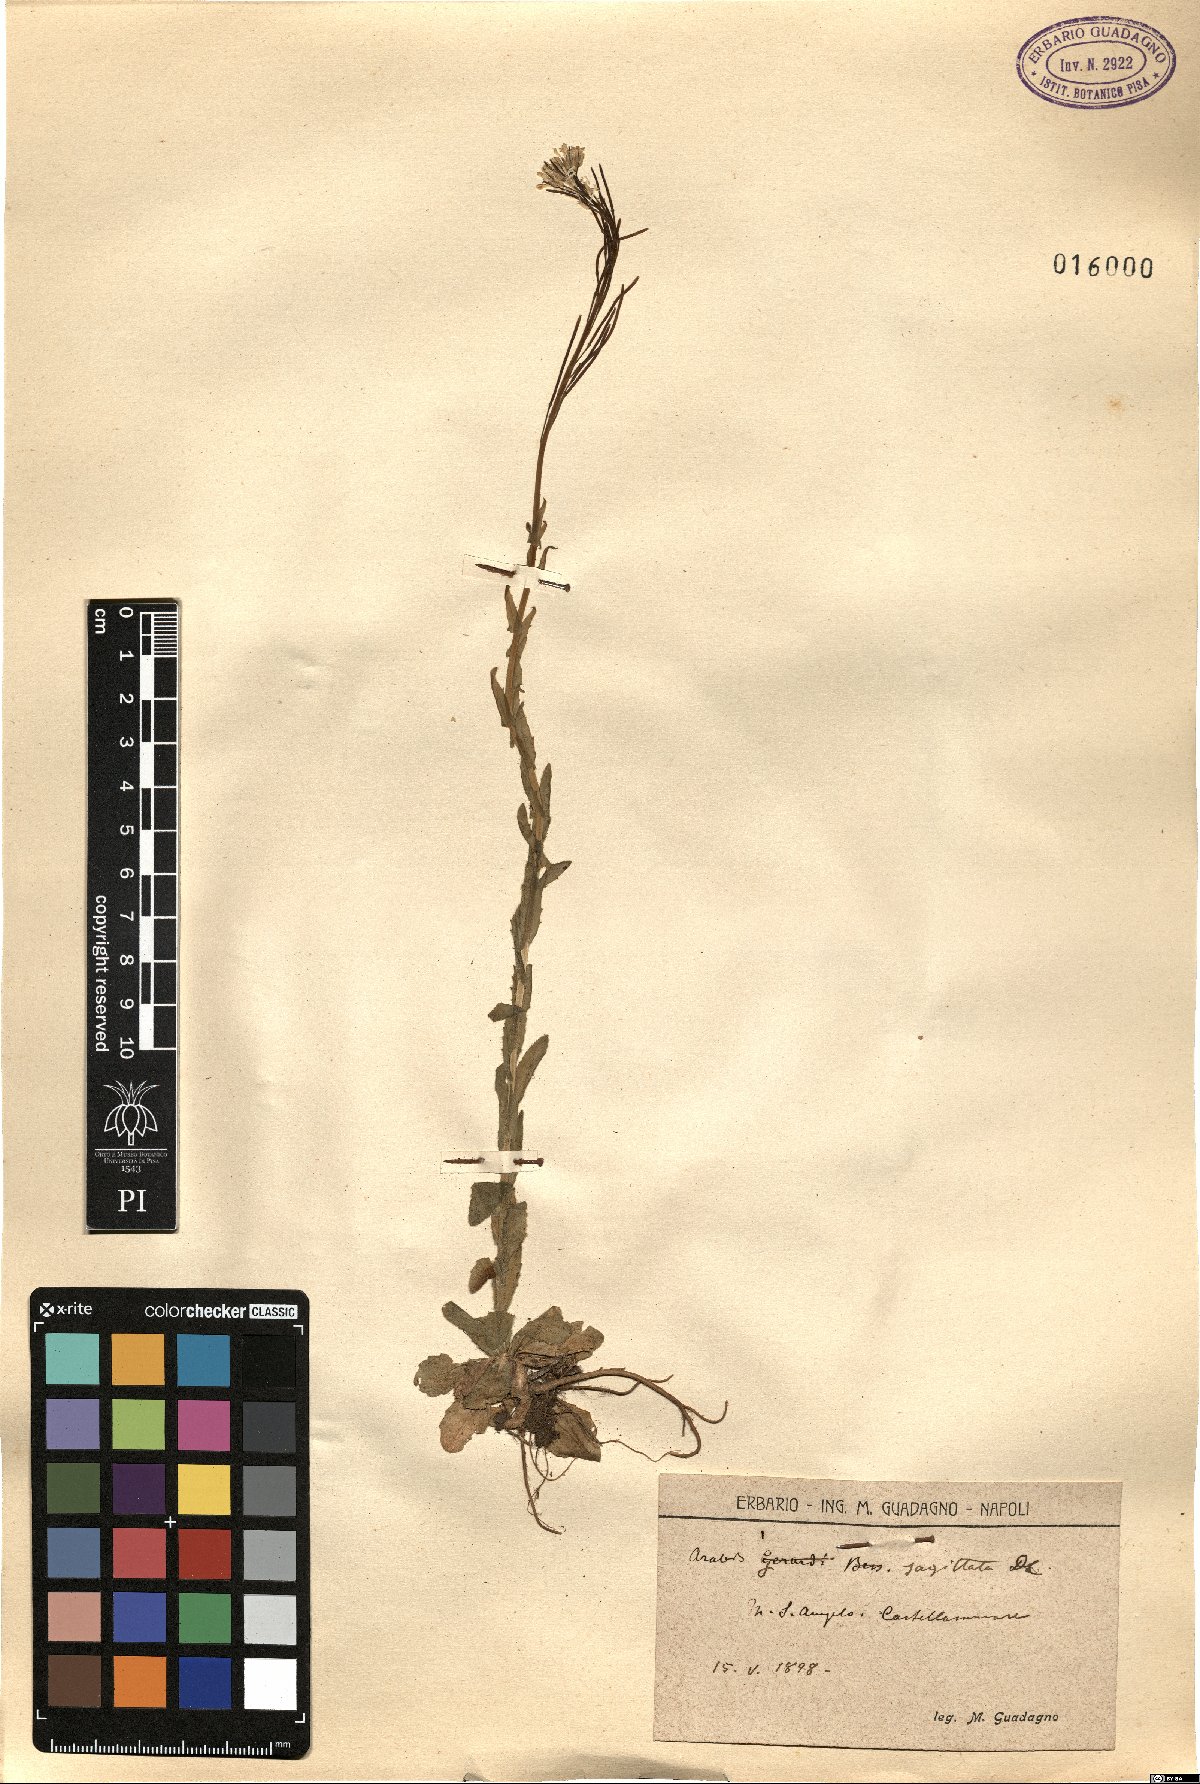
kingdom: Plantae
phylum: Tracheophyta
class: Magnoliopsida
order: Brassicales
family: Brassicaceae
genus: Arabis
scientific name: Arabis sagittata
